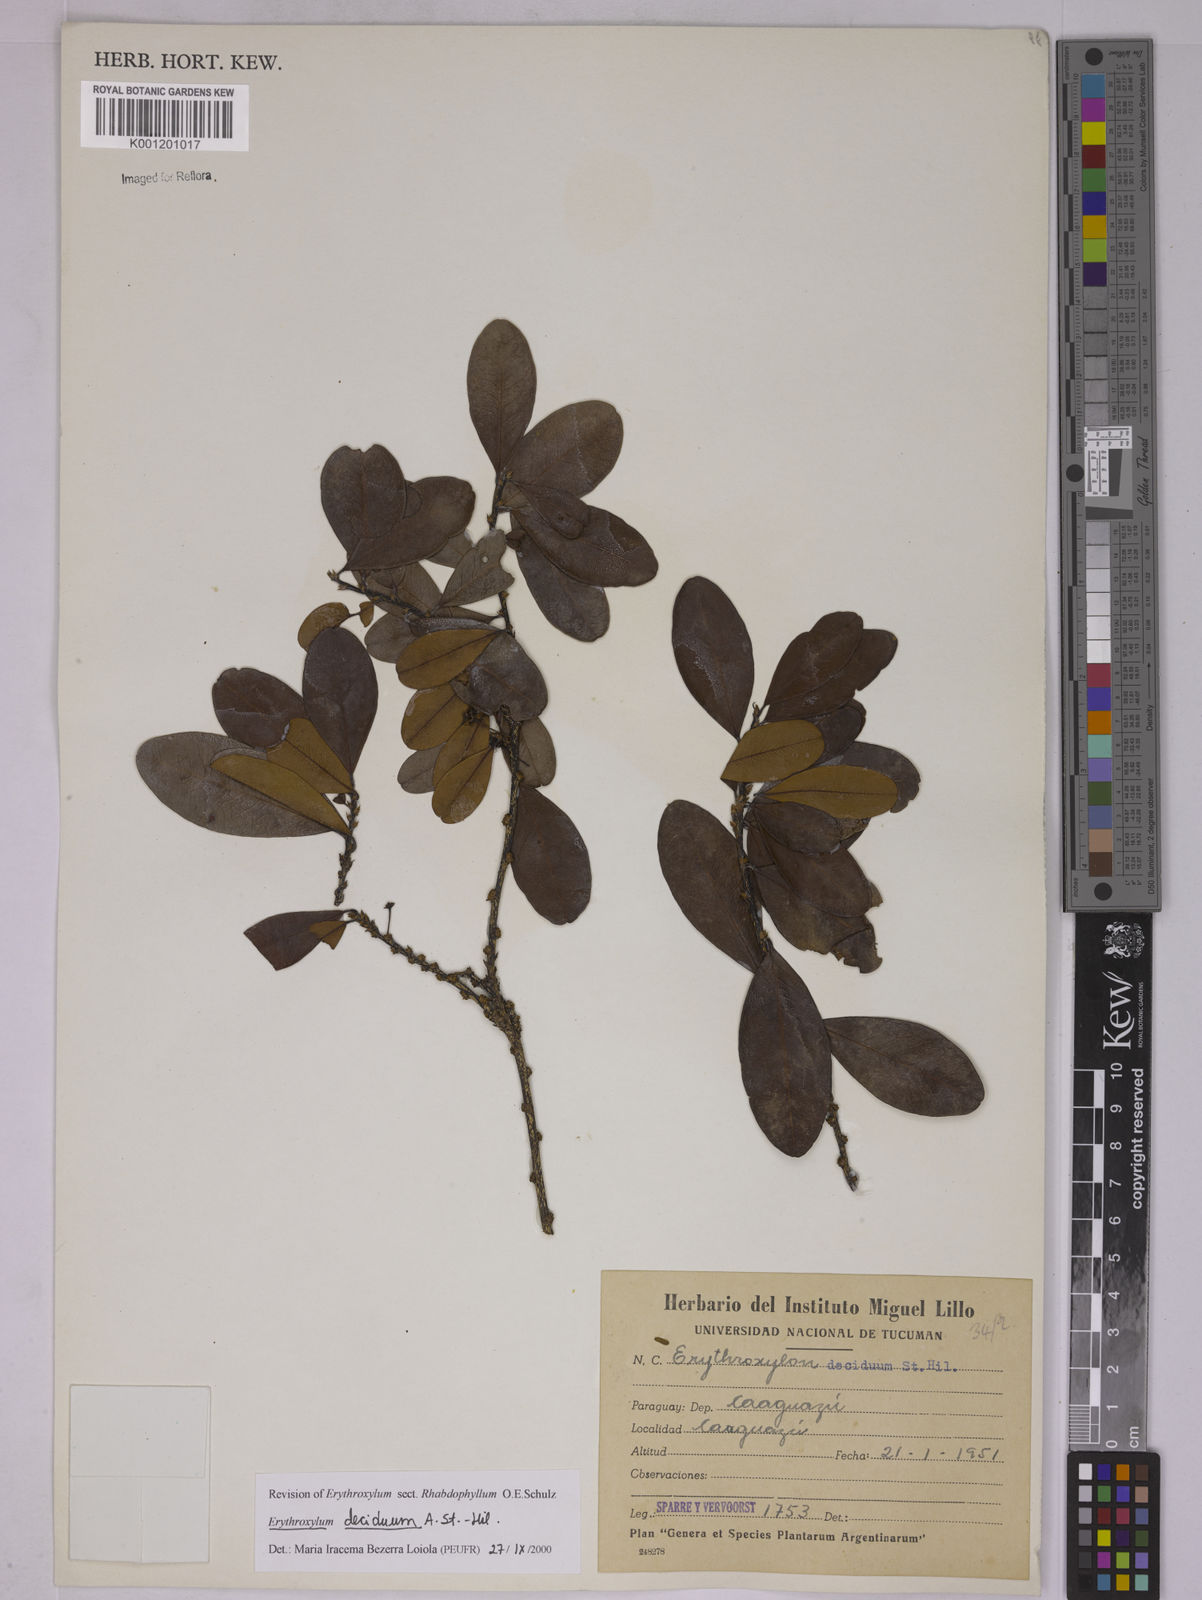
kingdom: Plantae
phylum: Tracheophyta
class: Magnoliopsida
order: Malpighiales
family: Erythroxylaceae
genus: Erythroxylum
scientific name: Erythroxylum deciduum
